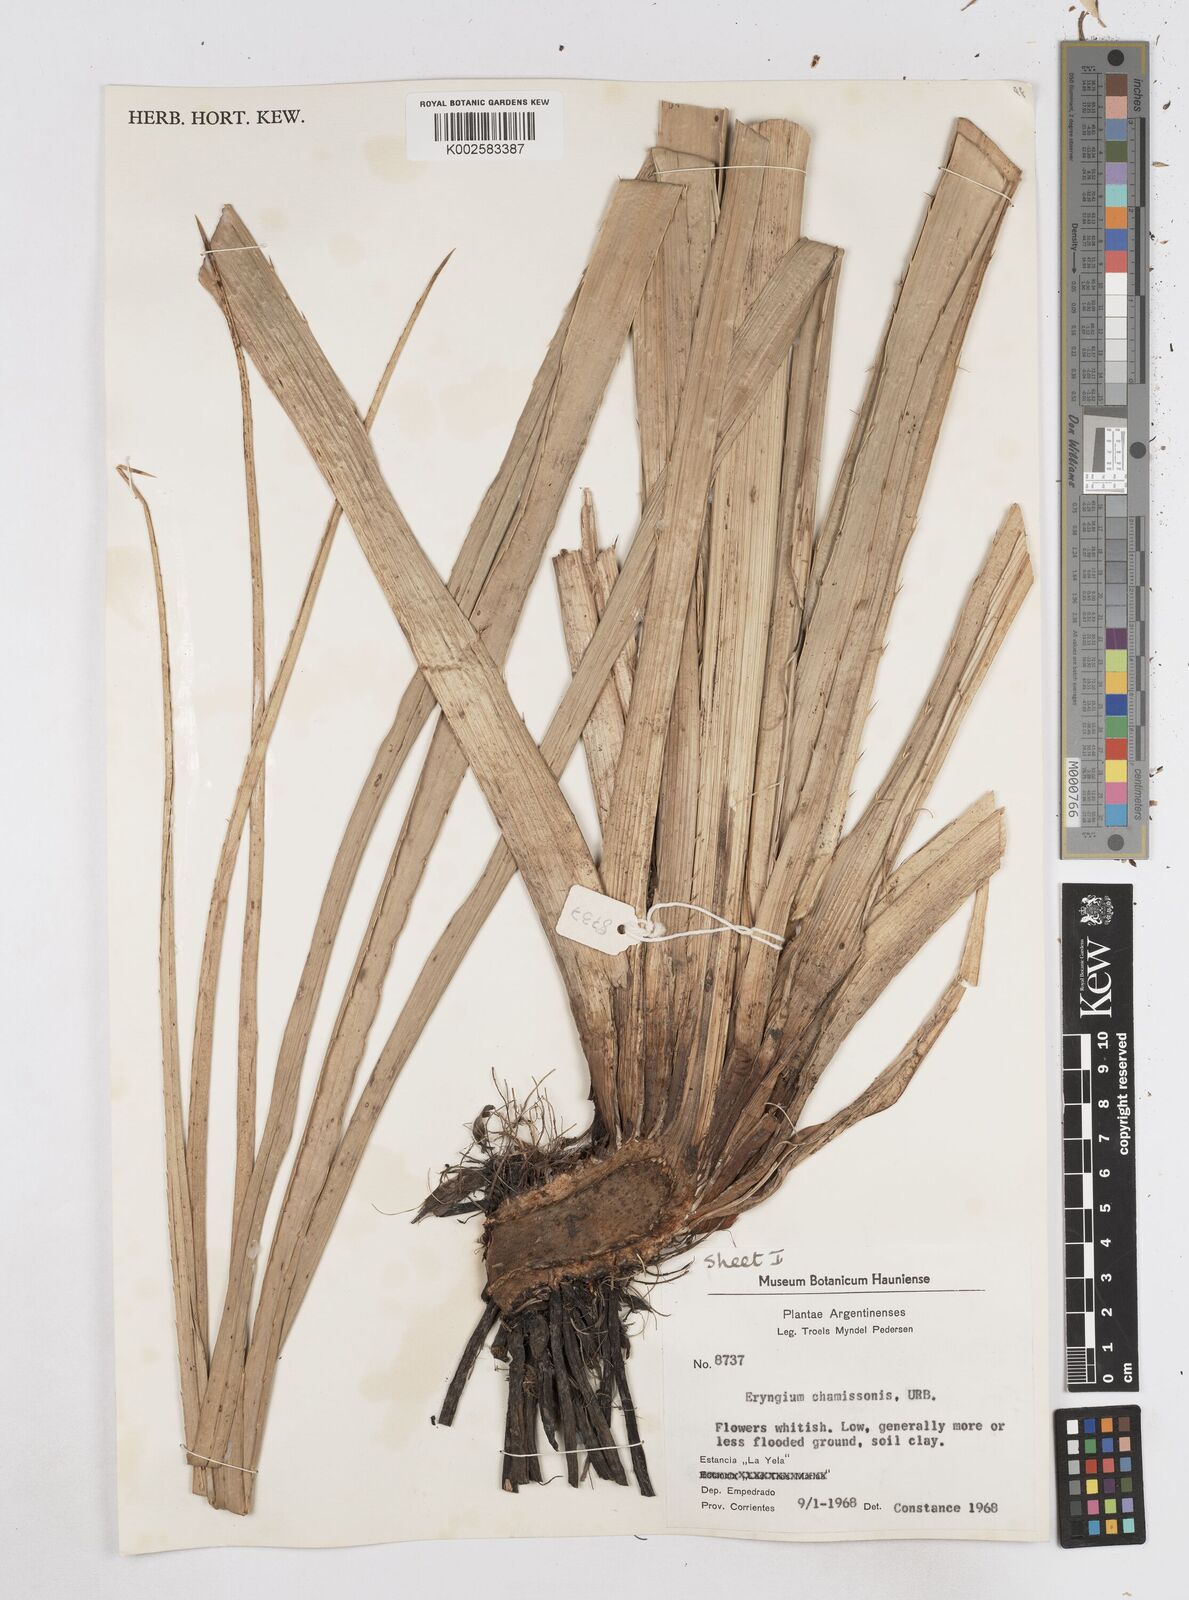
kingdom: Plantae
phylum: Tracheophyta
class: Magnoliopsida
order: Apiales
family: Apiaceae
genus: Eryngium
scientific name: Eryngium chamissonis
